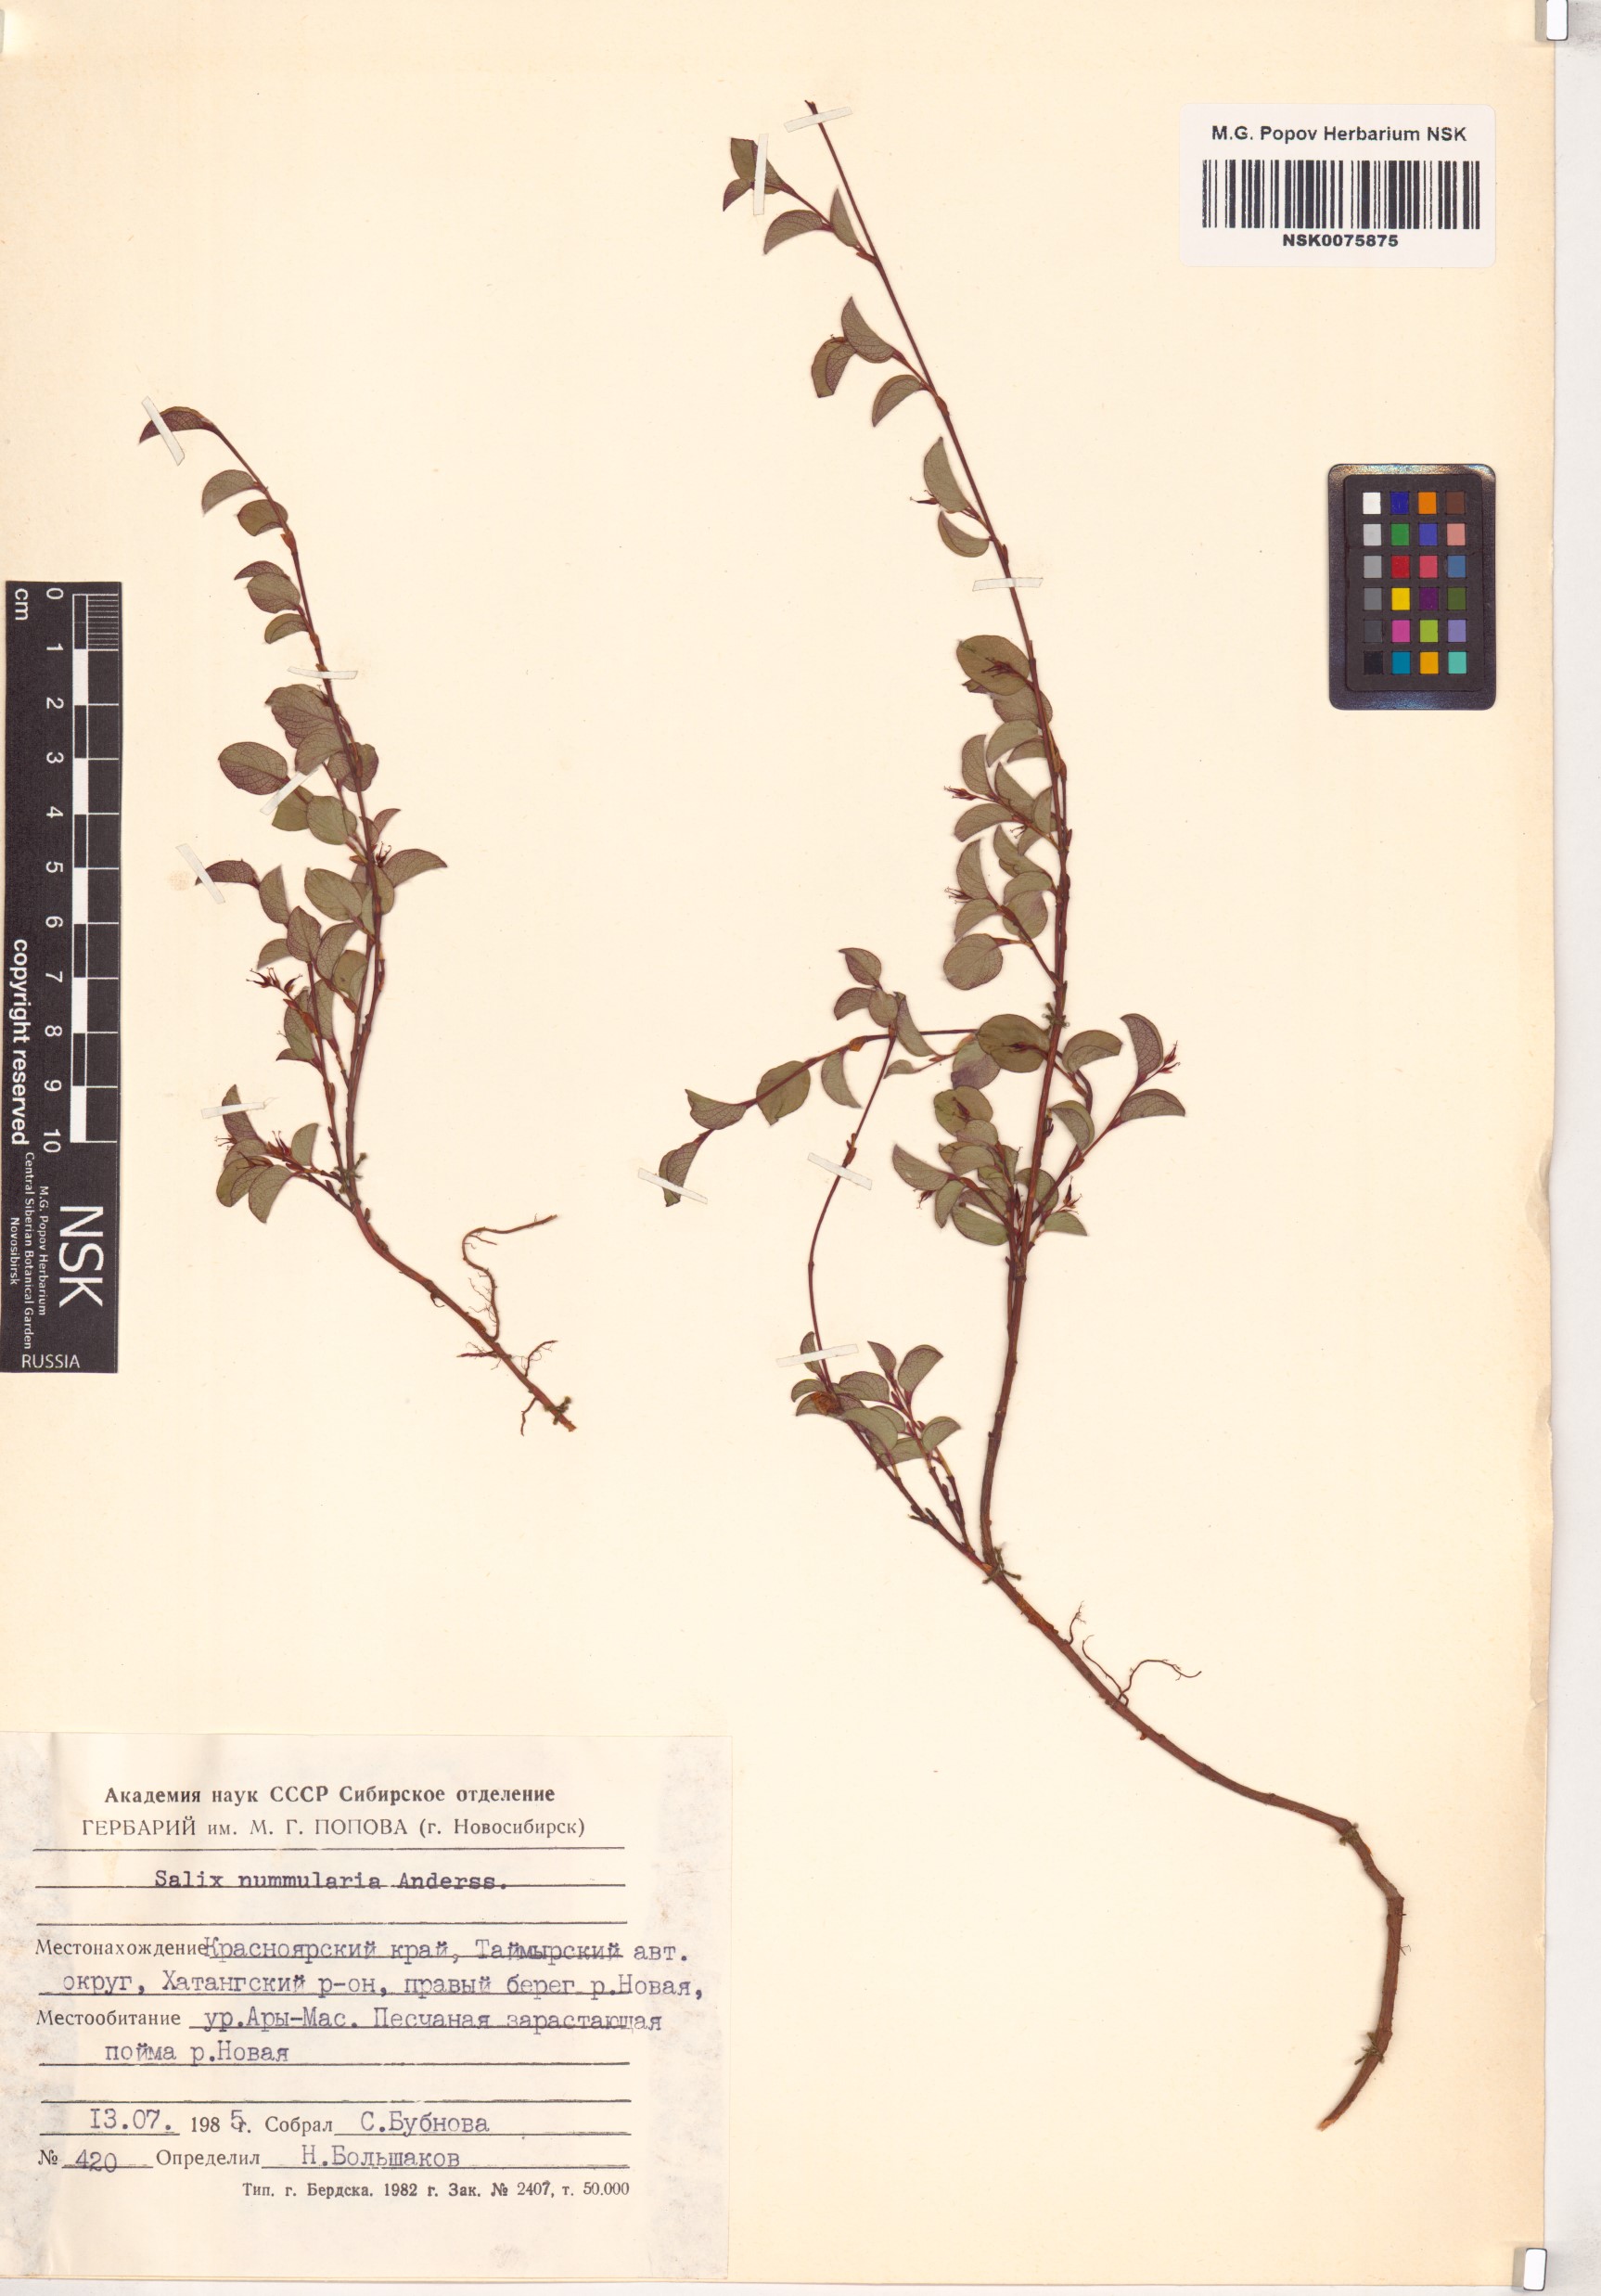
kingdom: Plantae
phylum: Tracheophyta
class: Magnoliopsida
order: Malpighiales
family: Salicaceae
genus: Salix
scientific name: Salix nummularia
